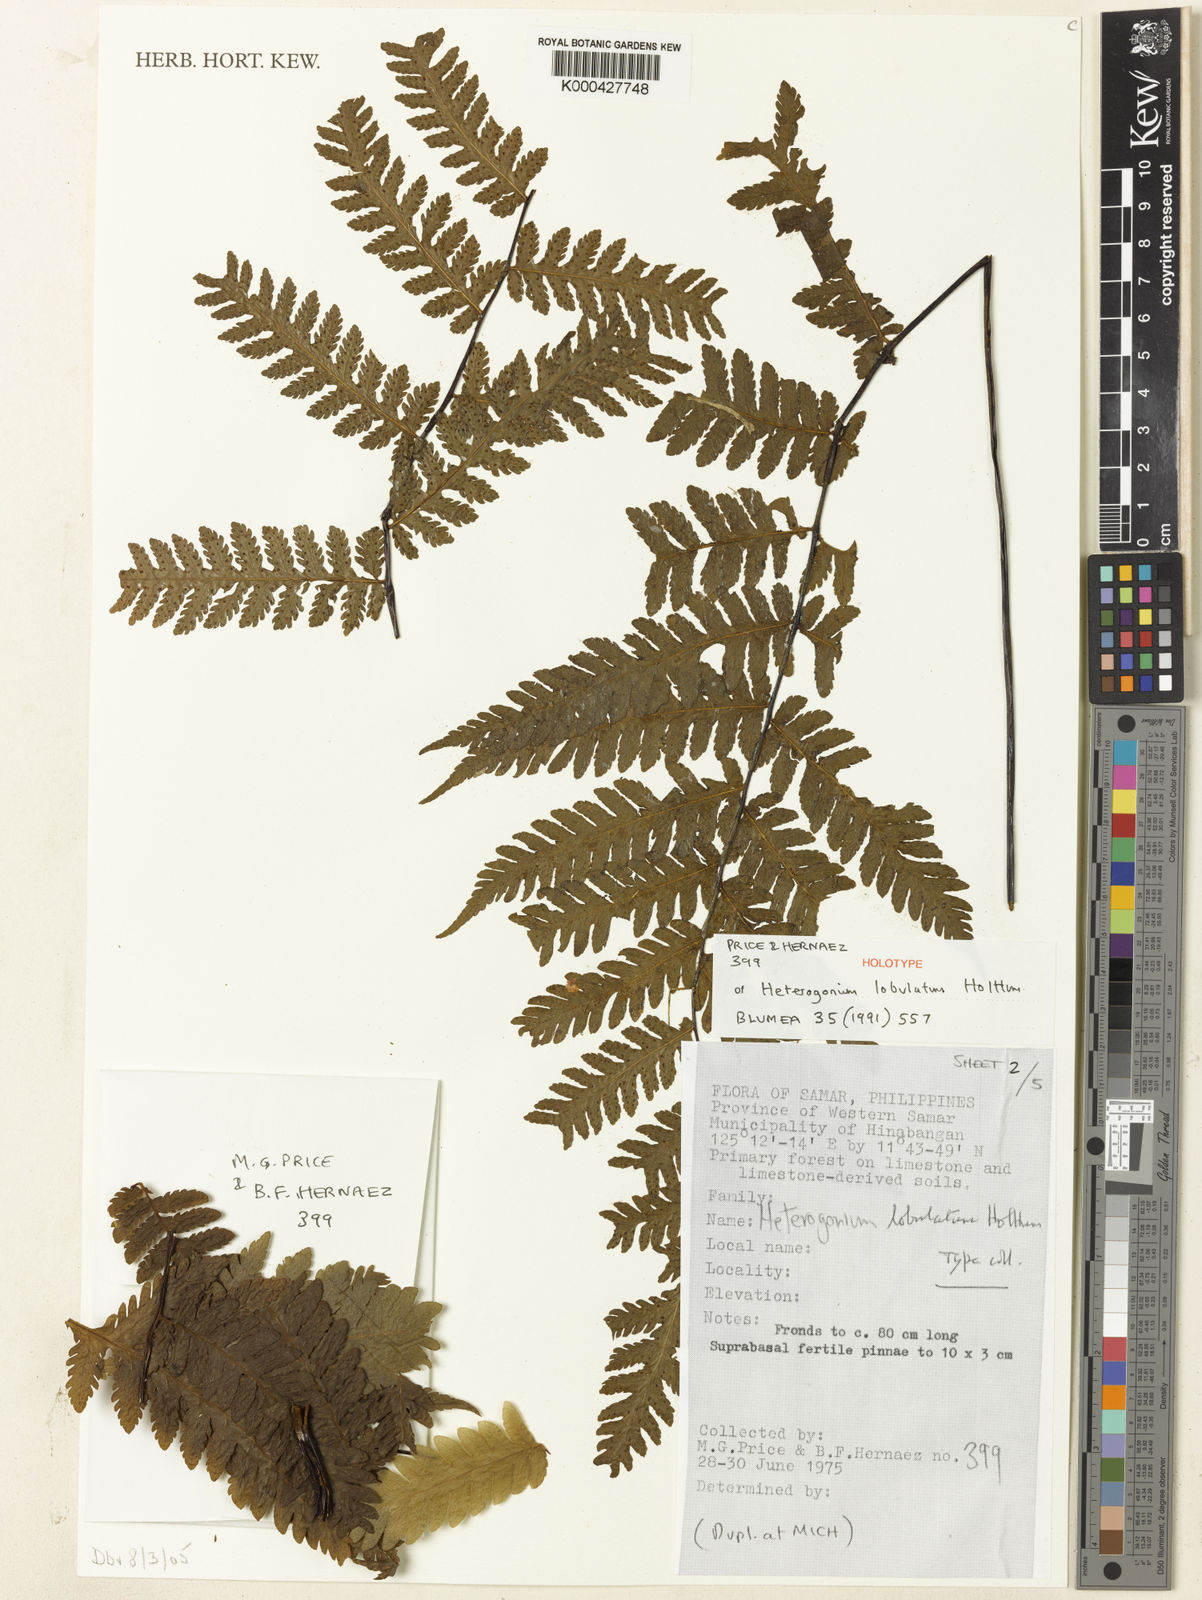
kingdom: Plantae
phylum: Tracheophyta
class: Polypodiopsida
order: Polypodiales
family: Tectariaceae
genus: Tectaria
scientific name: Tectaria samariana
